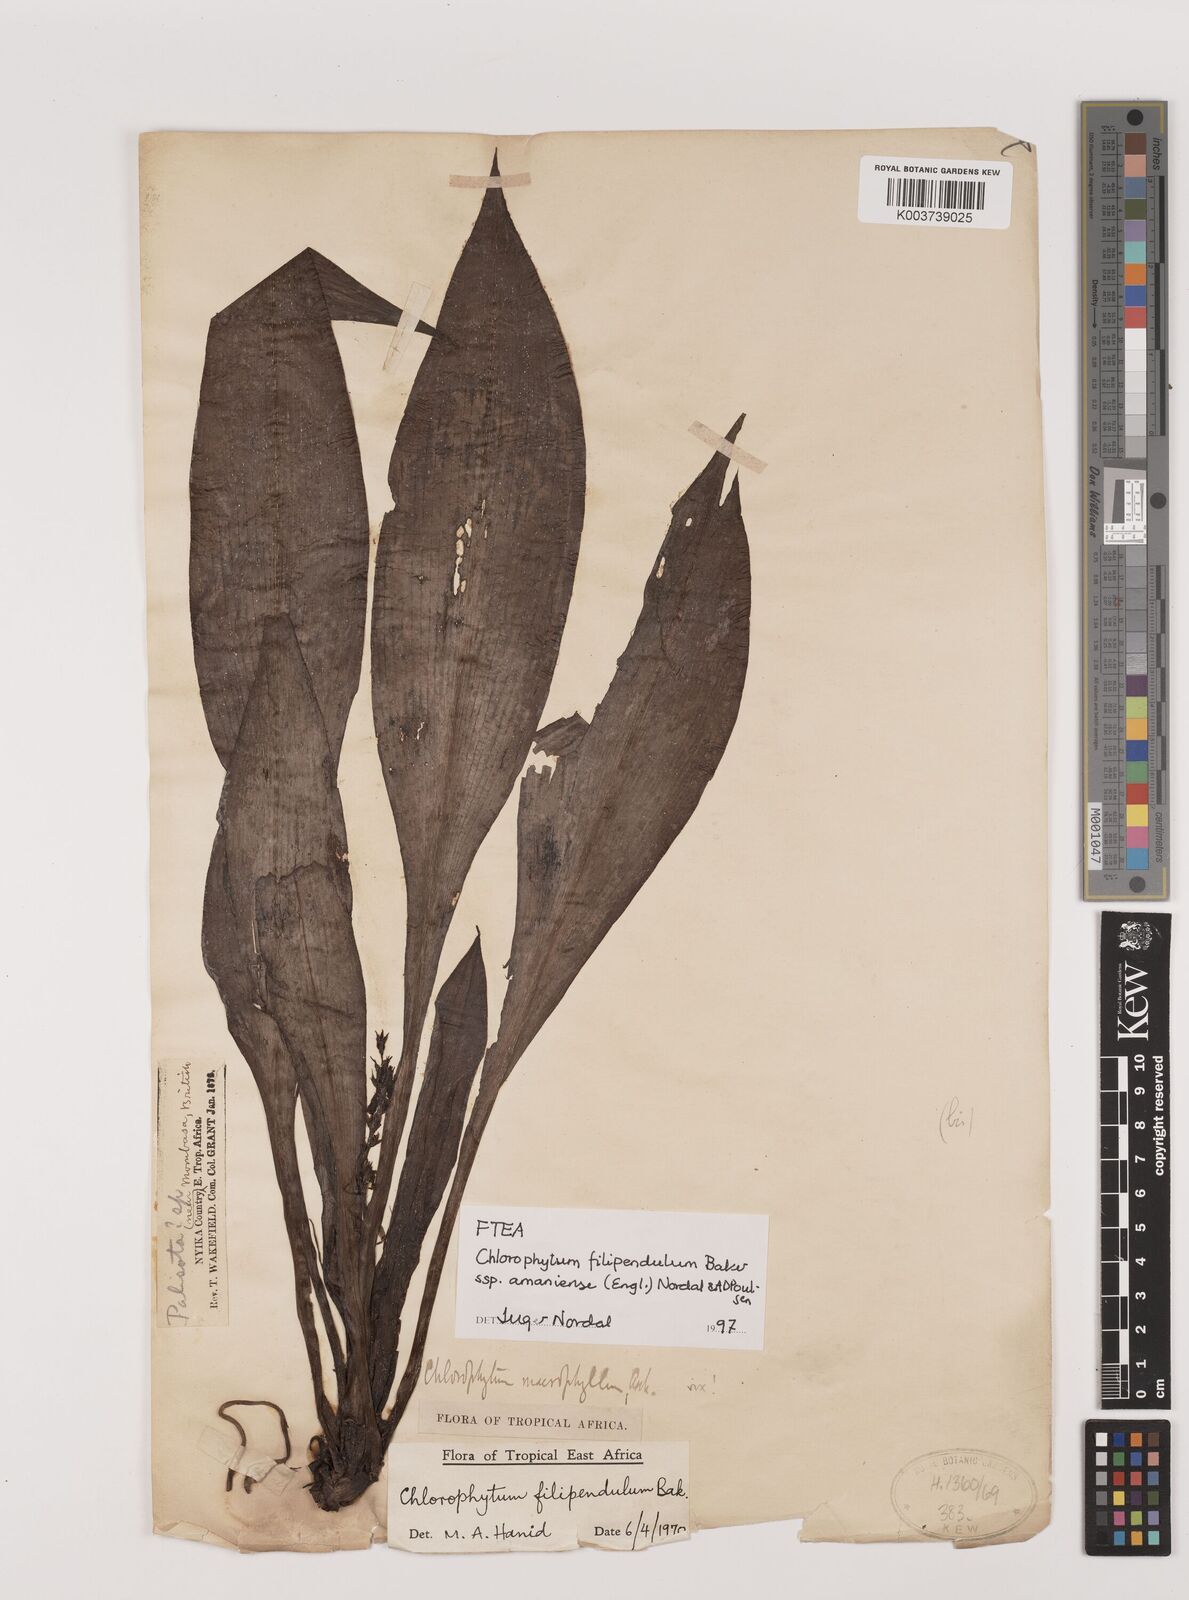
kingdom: Plantae
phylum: Tracheophyta
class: Liliopsida
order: Asparagales
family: Asparagaceae
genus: Chlorophytum
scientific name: Chlorophytum filipendulum
